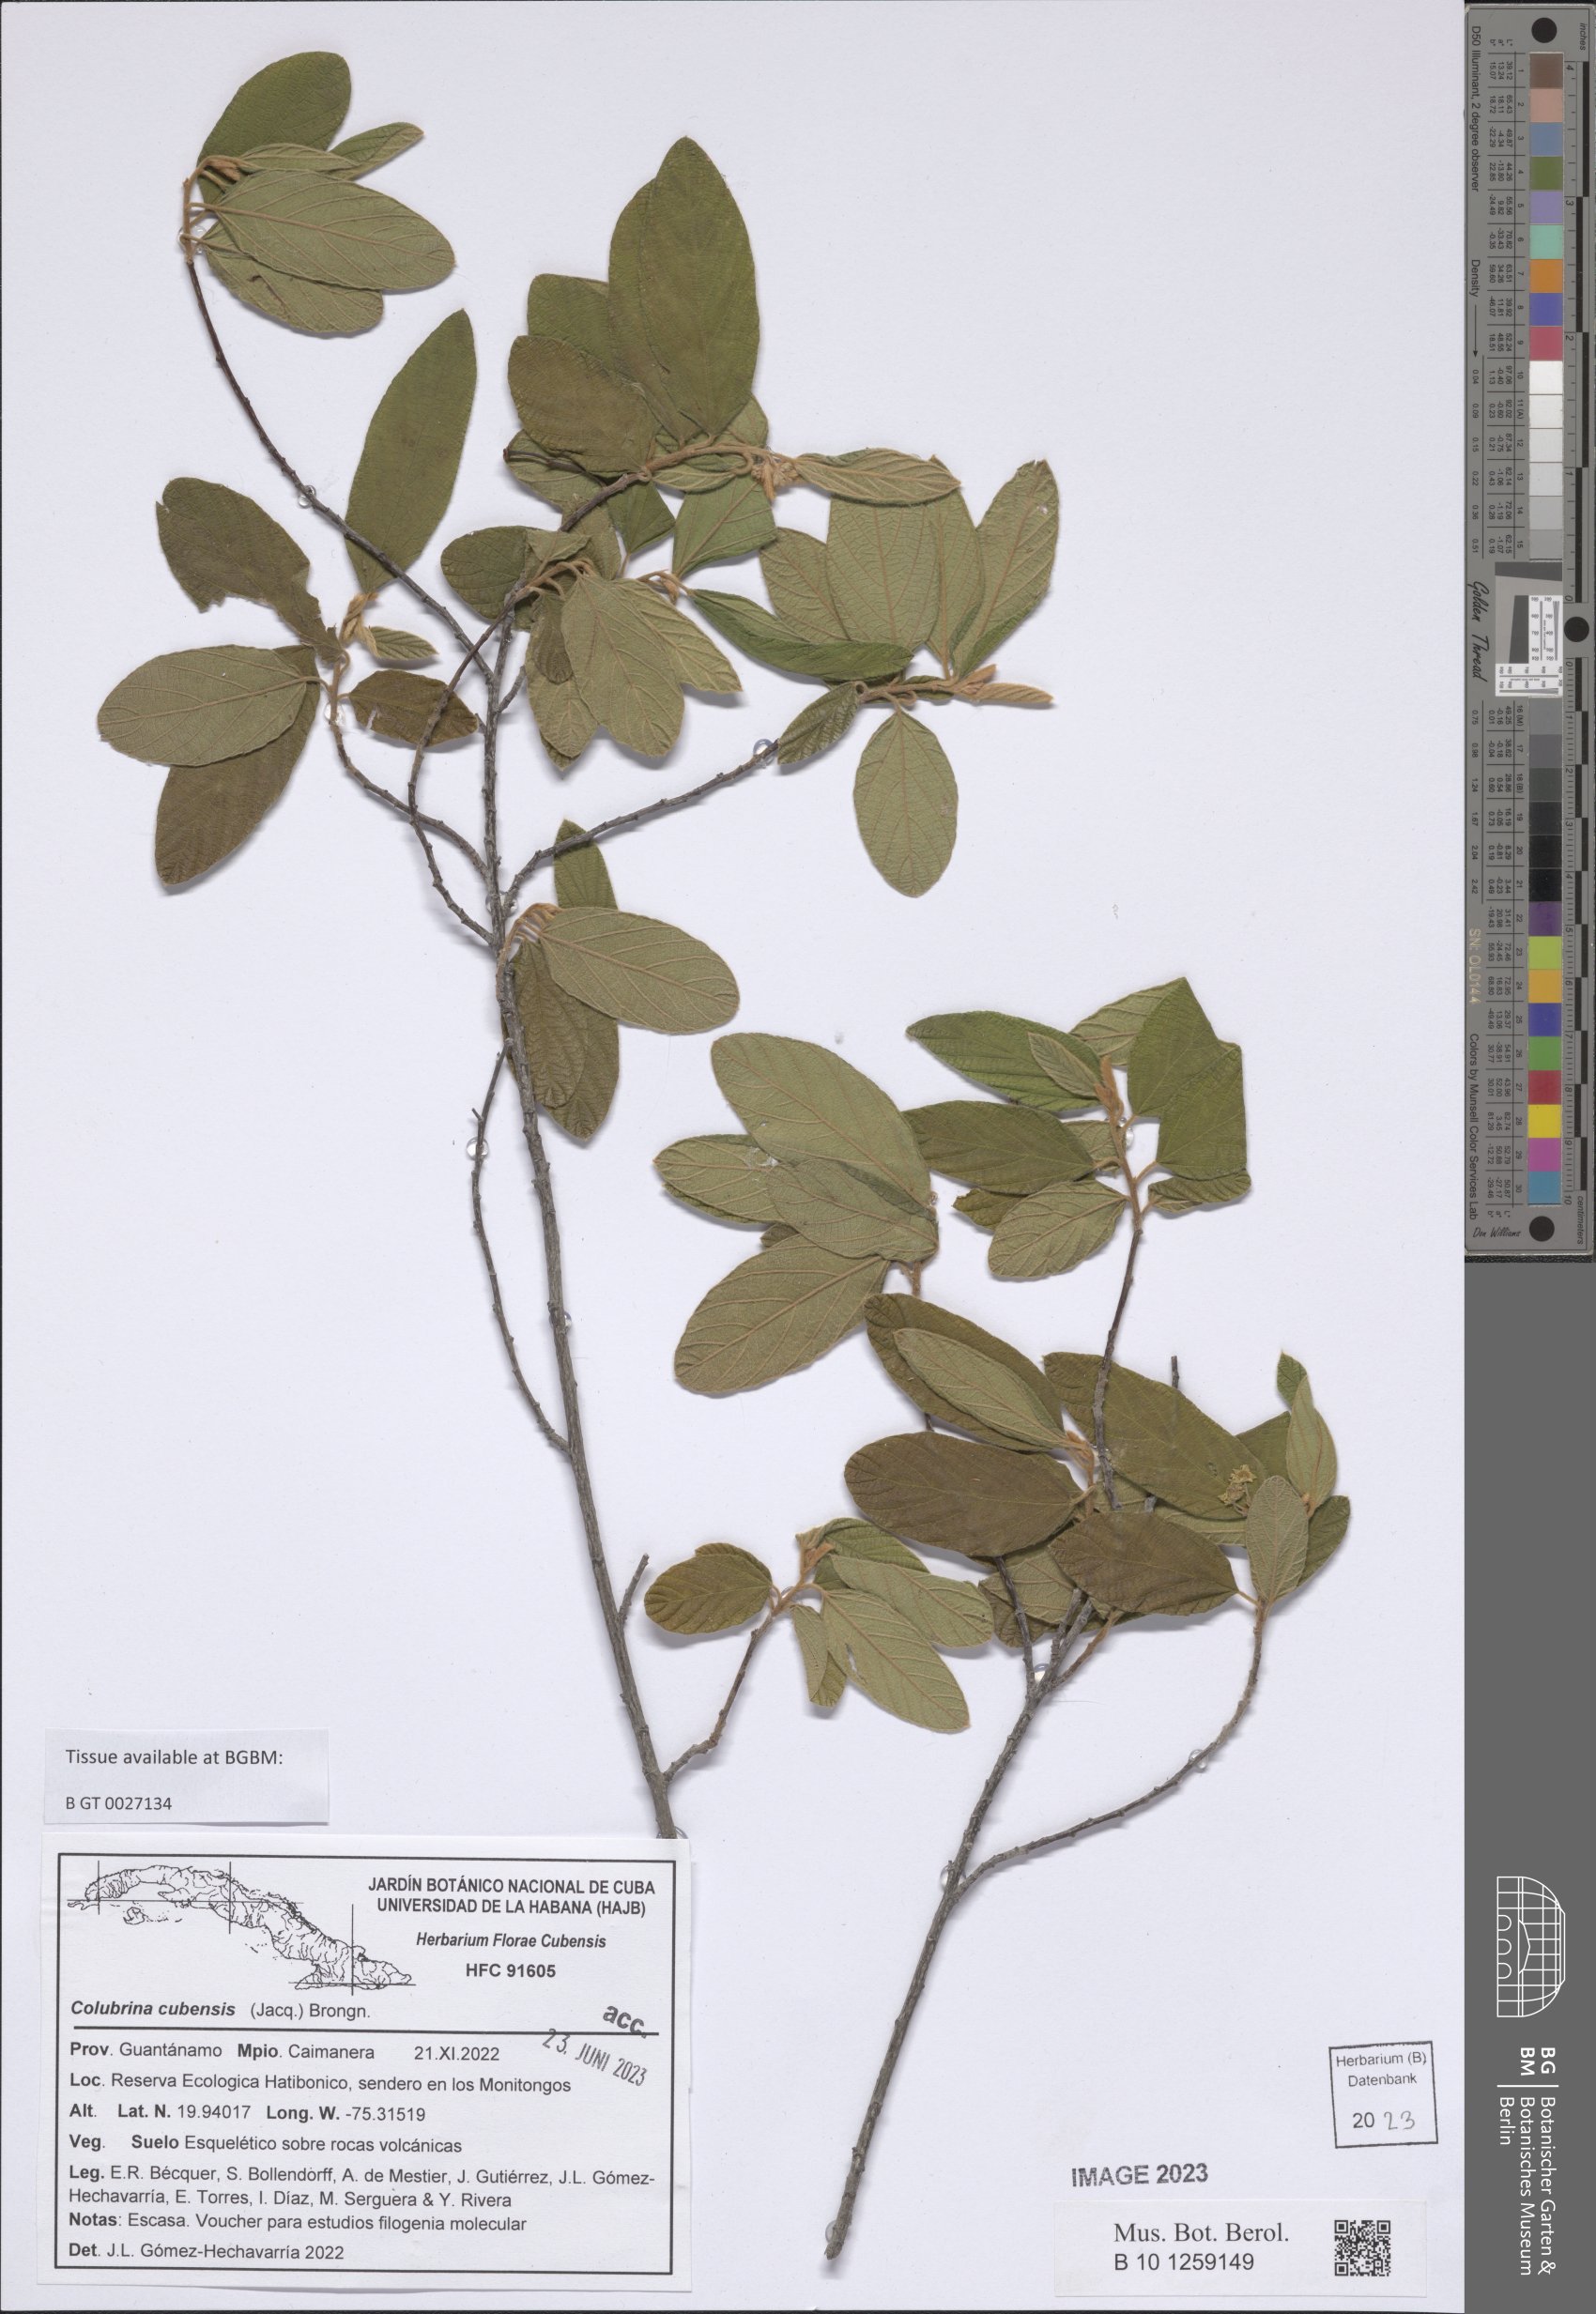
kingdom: Plantae
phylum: Tracheophyta
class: Magnoliopsida
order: Rosales
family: Rhamnaceae
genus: Colubrina
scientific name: Colubrina cubensis
